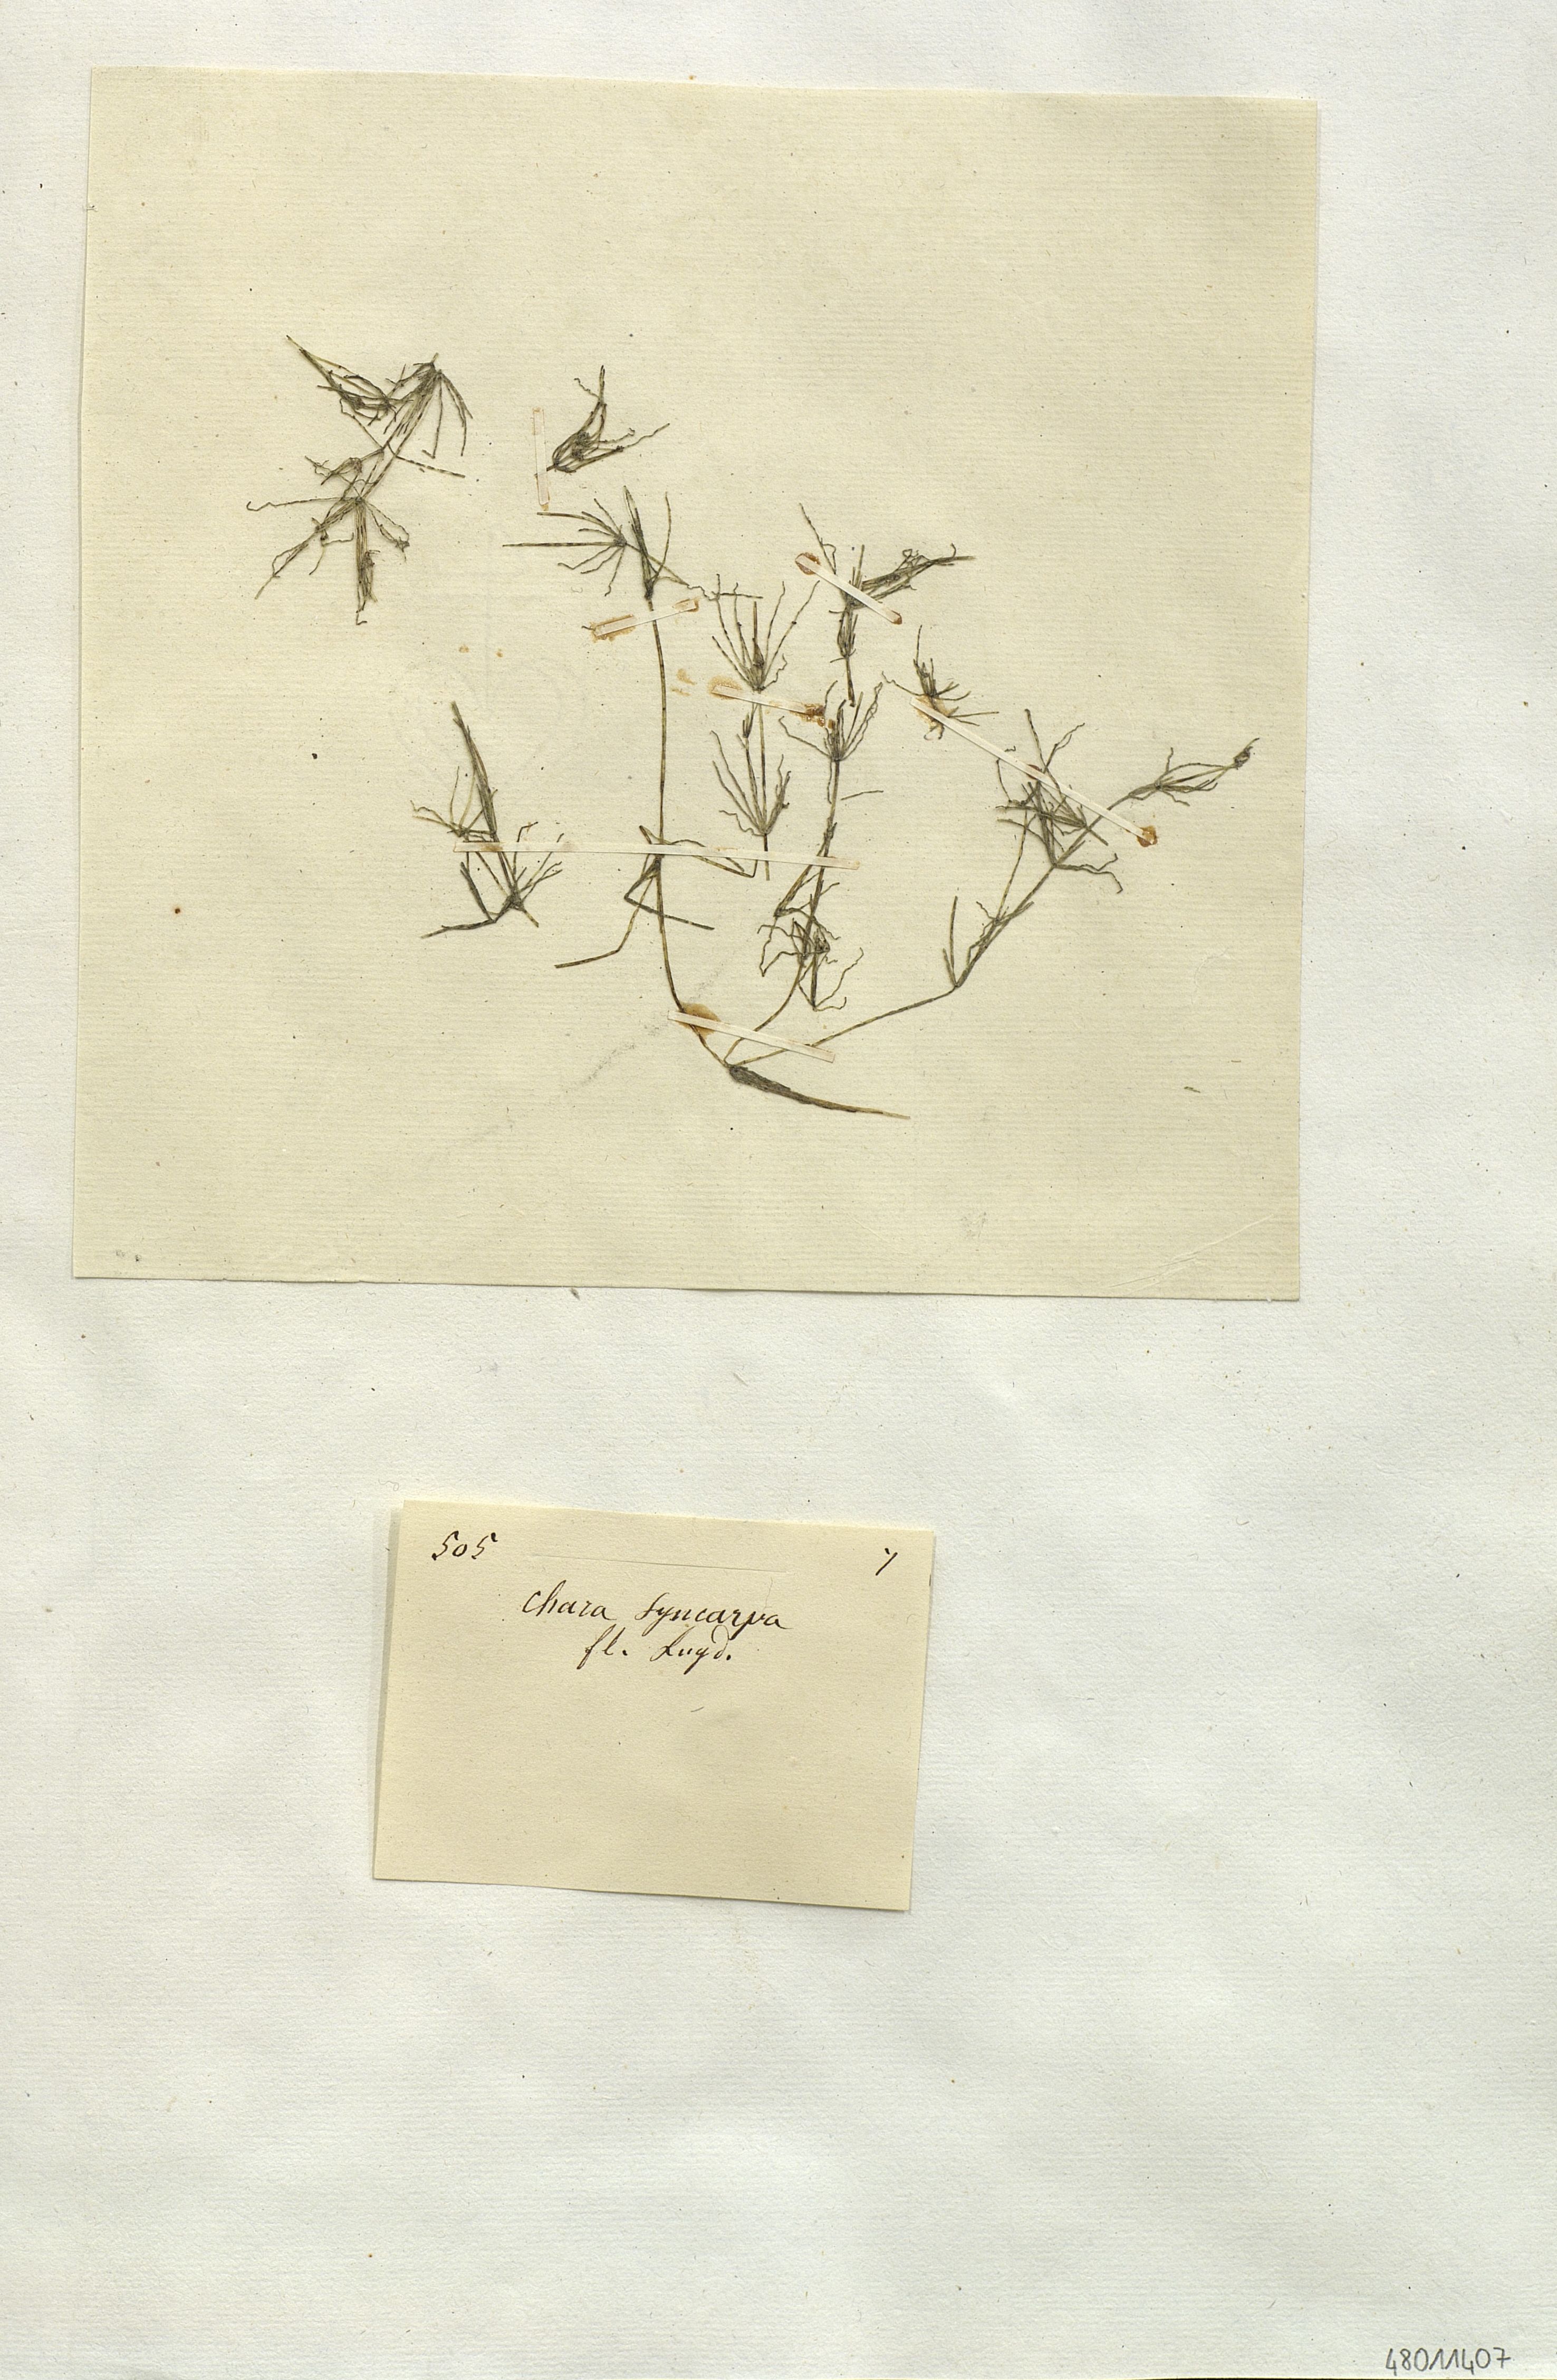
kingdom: Plantae
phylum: Charophyta
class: Charophyceae
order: Charales
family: Characeae
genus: Nitella
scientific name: Nitella syncarpa
